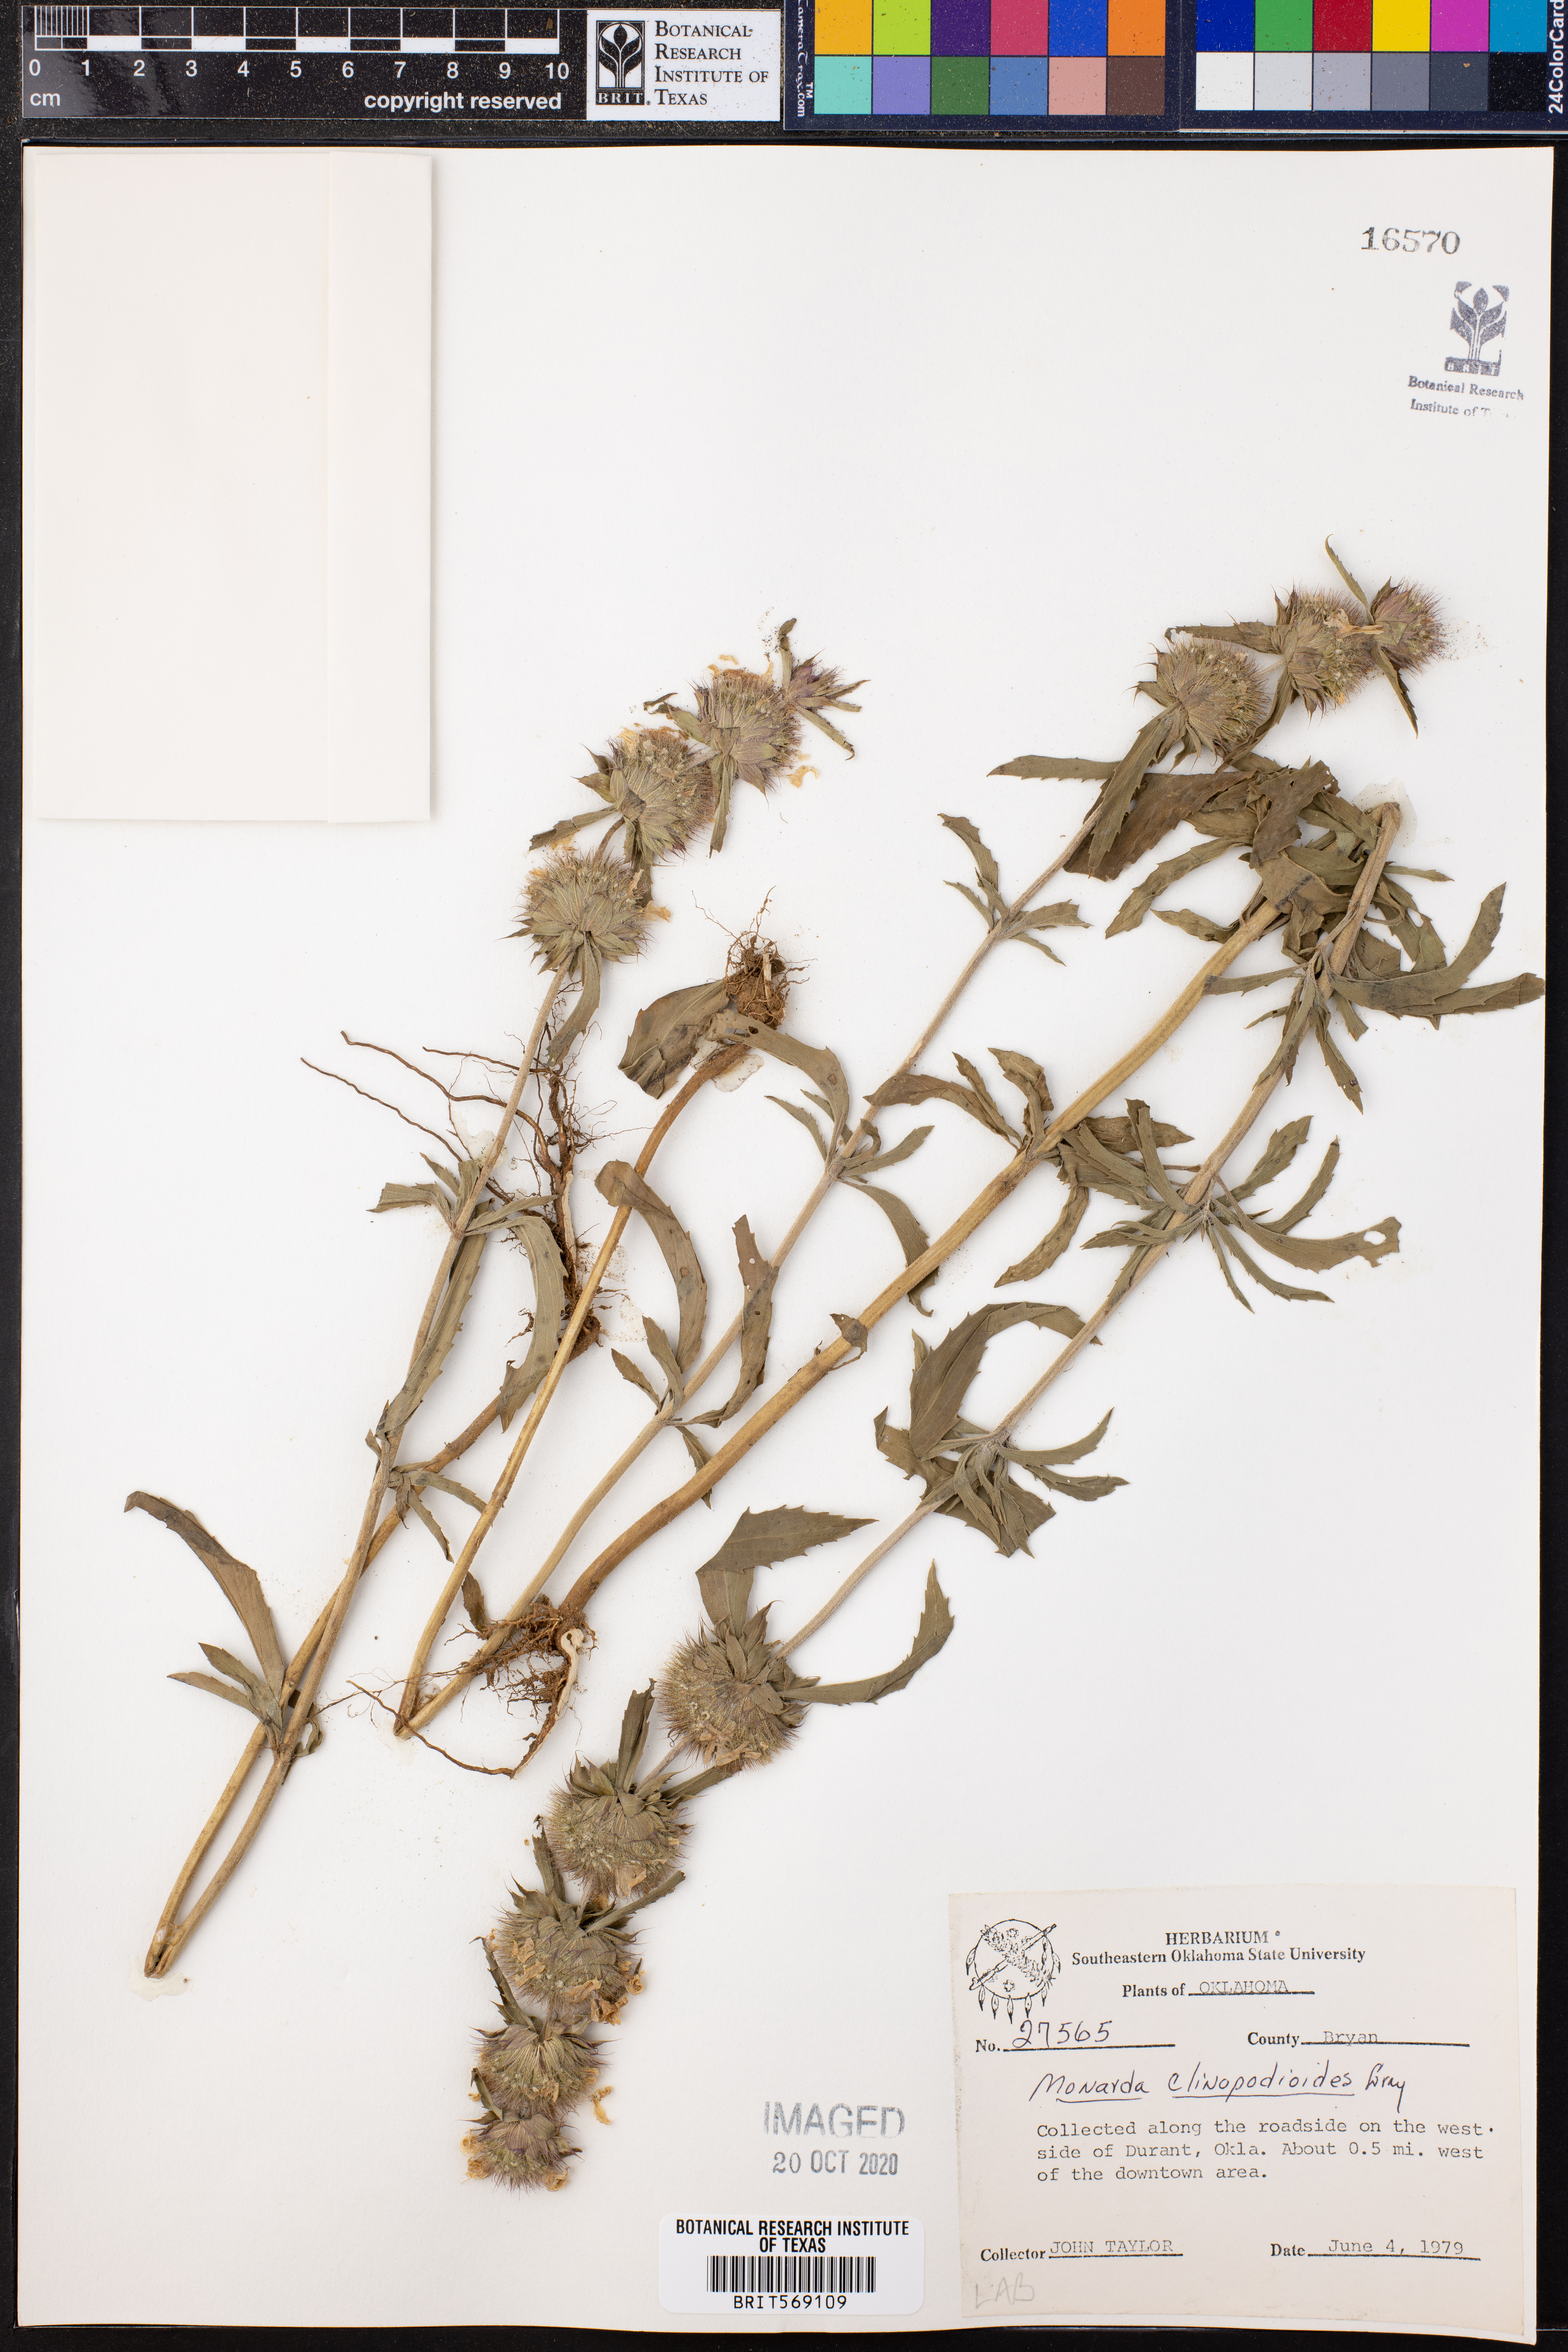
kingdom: Plantae
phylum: Tracheophyta
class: Magnoliopsida
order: Lamiales
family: Lamiaceae
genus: Monarda
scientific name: Monarda clinopodioides
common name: Basil beebalm
